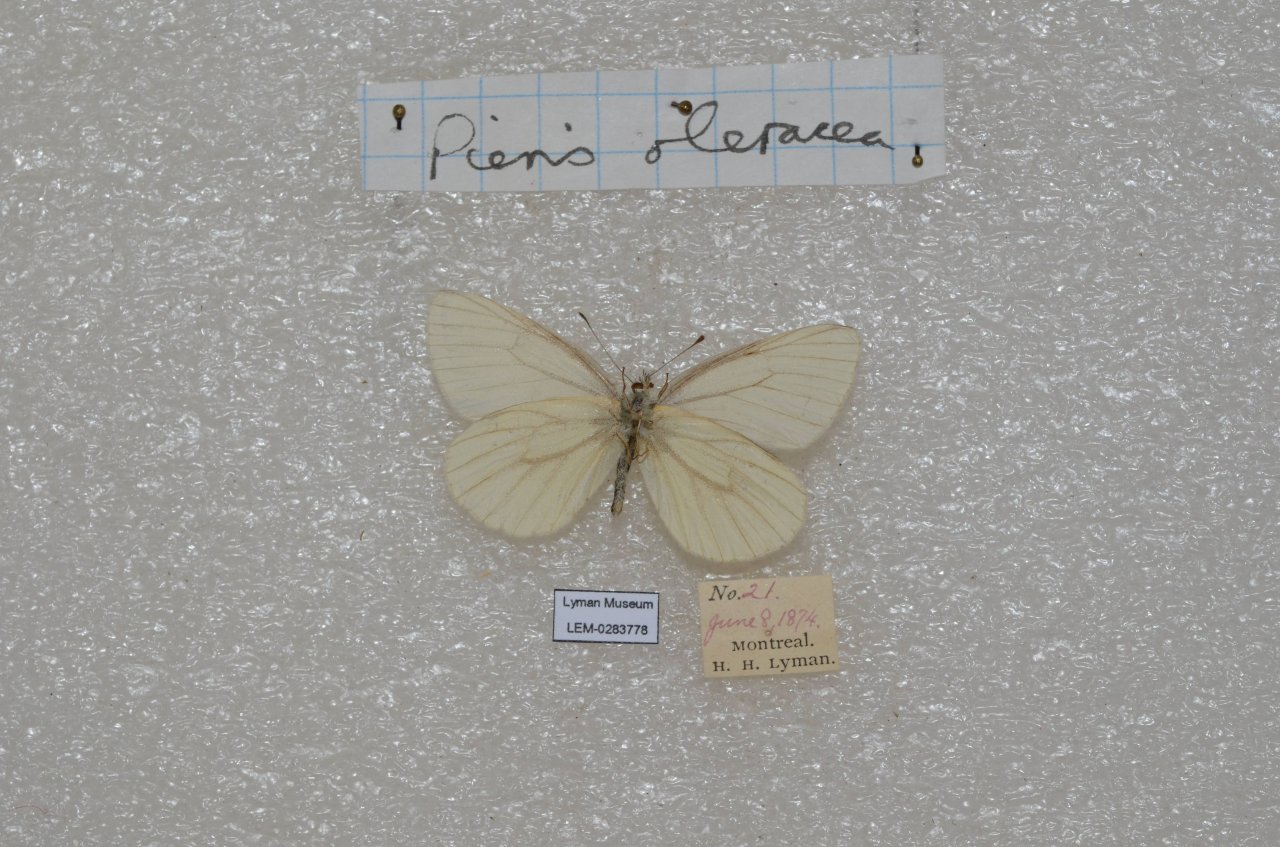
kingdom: Animalia
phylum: Arthropoda
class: Insecta
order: Lepidoptera
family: Pieridae
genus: Pieris
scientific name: Pieris oleracea
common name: Mustard White
